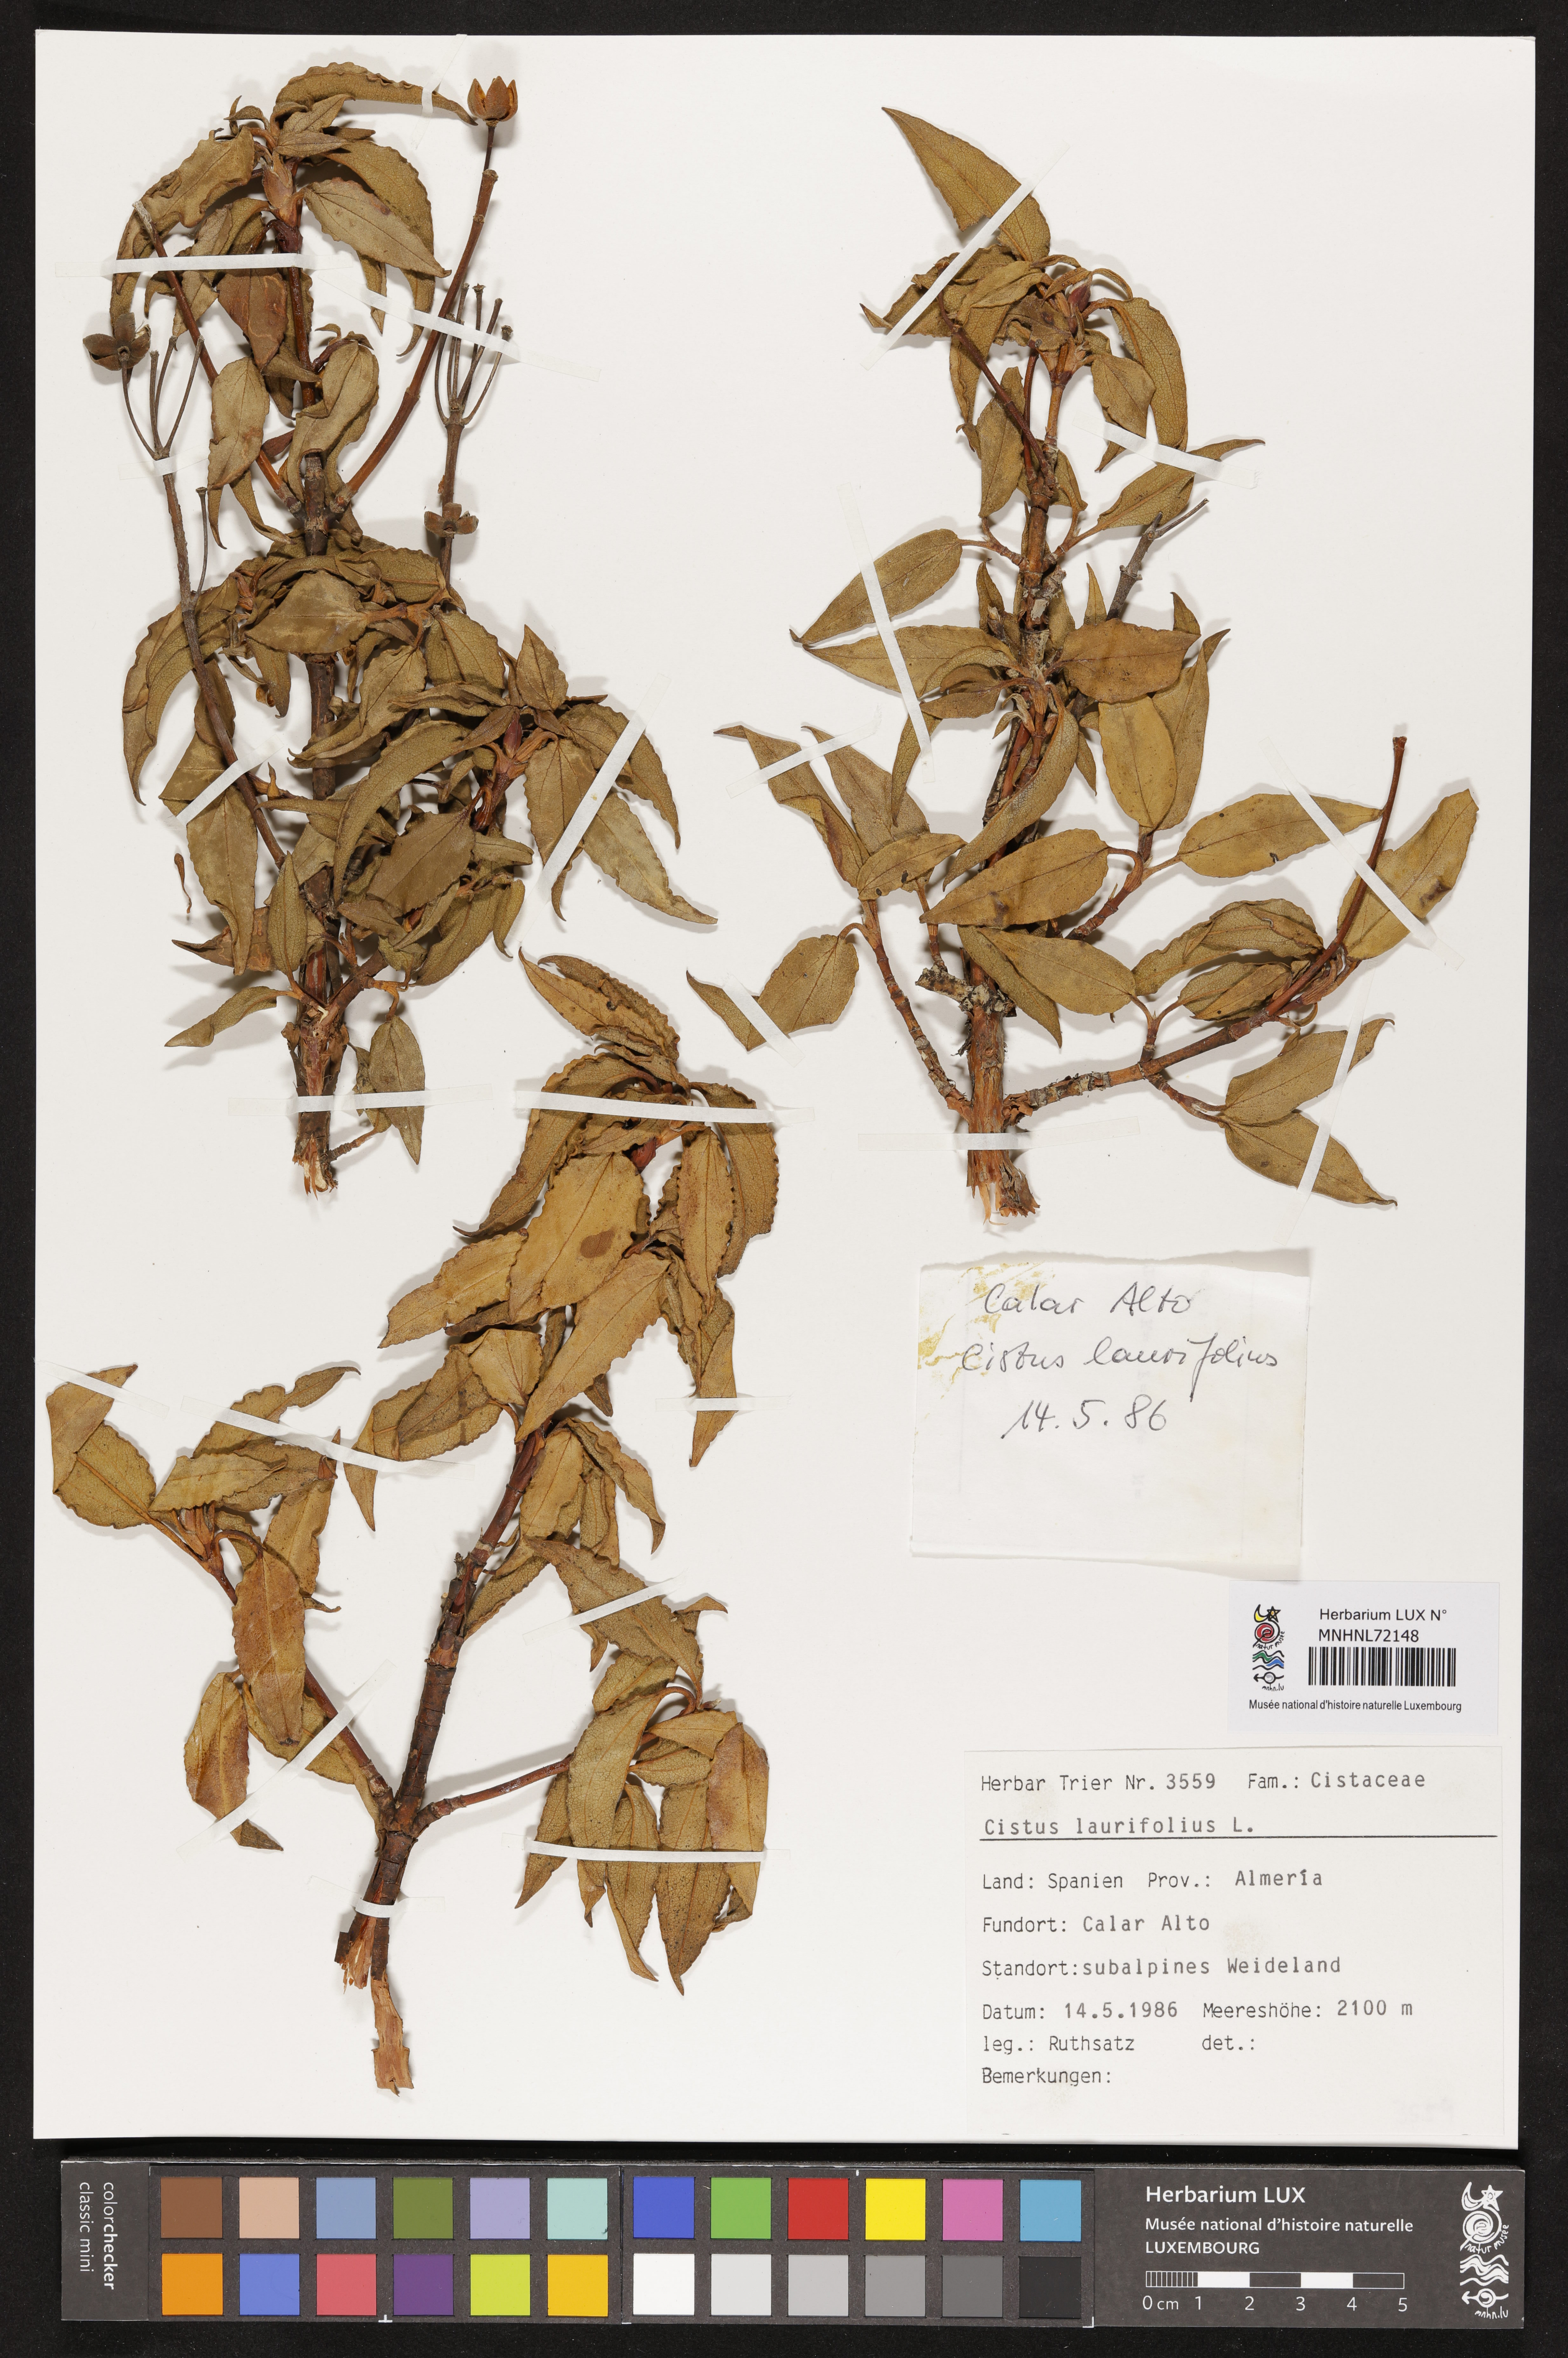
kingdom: Plantae
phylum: Tracheophyta
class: Magnoliopsida
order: Malvales
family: Cistaceae
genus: Cistus
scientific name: Cistus laurifolius
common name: Laurel-leaved cistus
